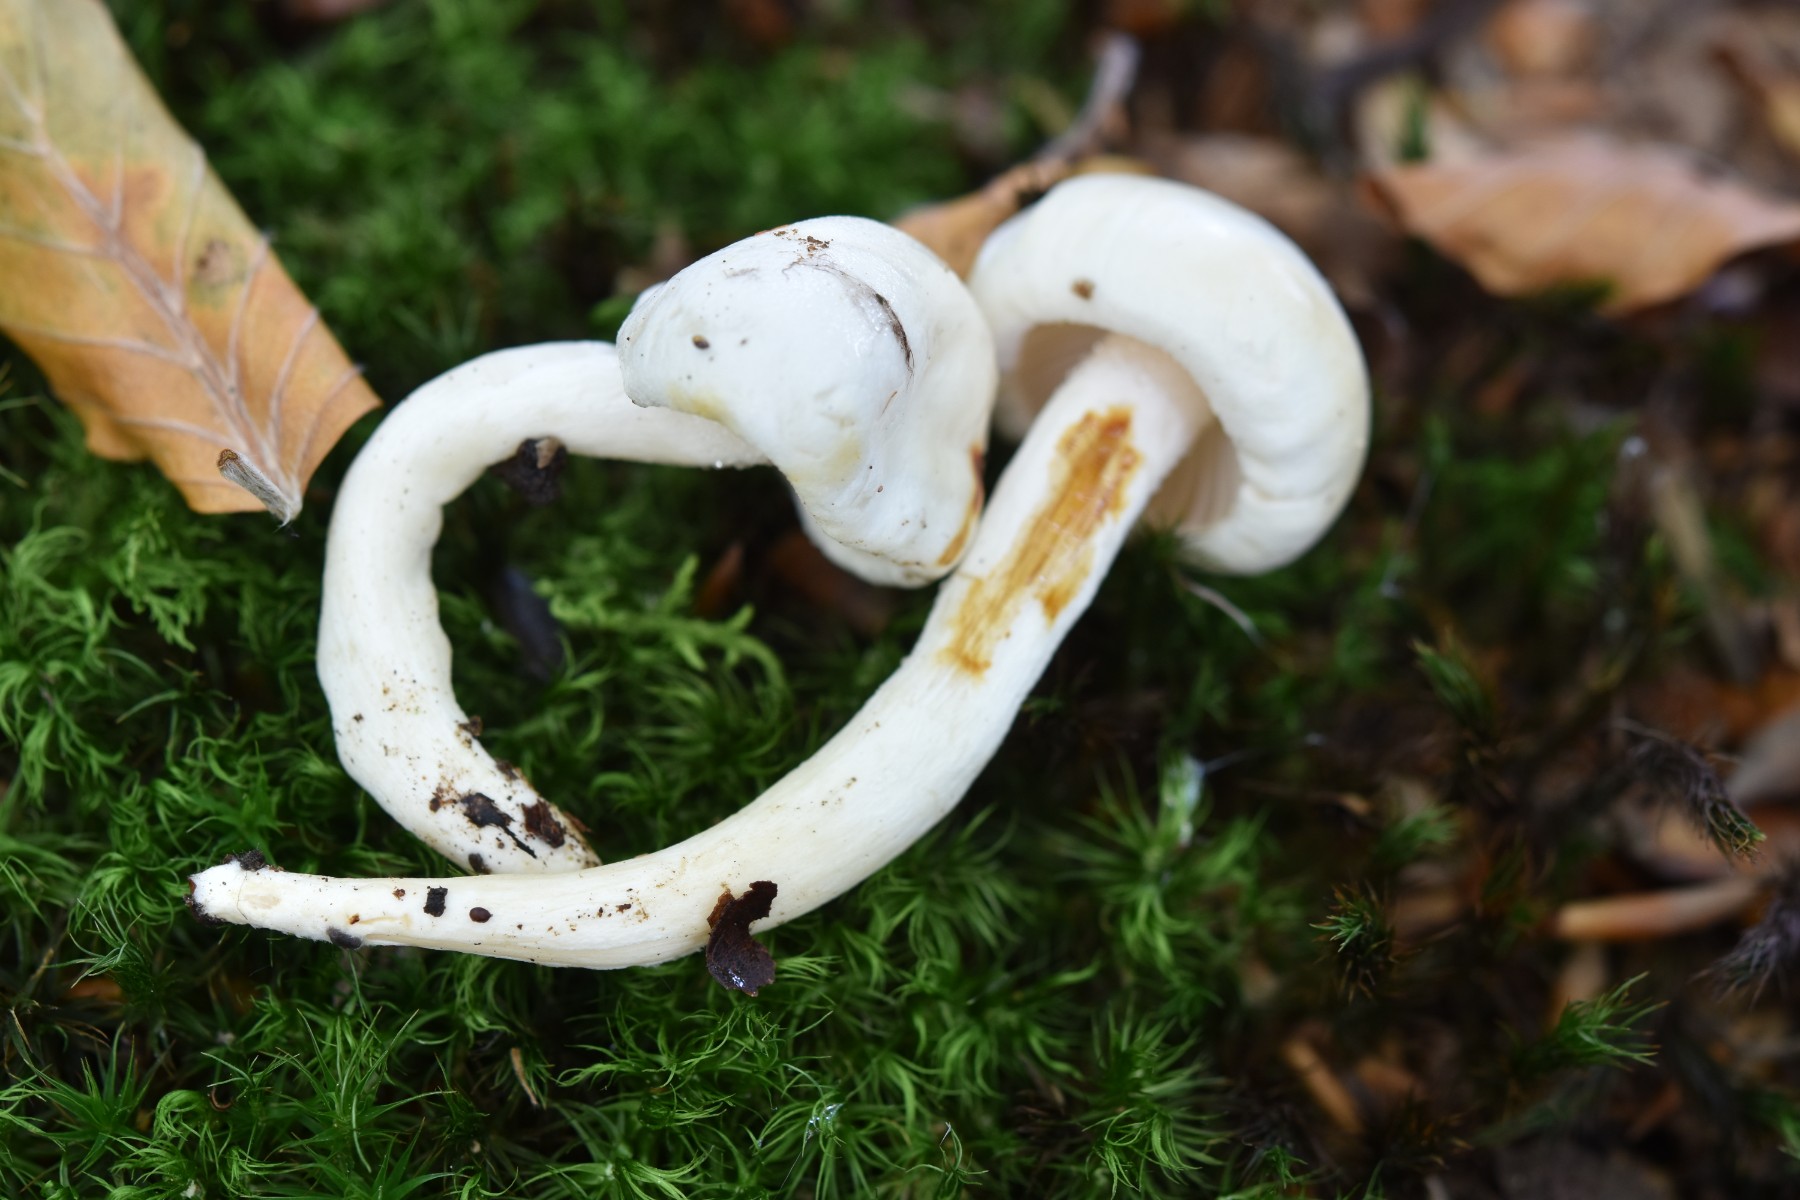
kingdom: Fungi
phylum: Basidiomycota
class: Agaricomycetes
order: Agaricales
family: Hygrophoraceae
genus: Hygrophorus
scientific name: Hygrophorus discoxanthus
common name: ildelugtende sneglehat
